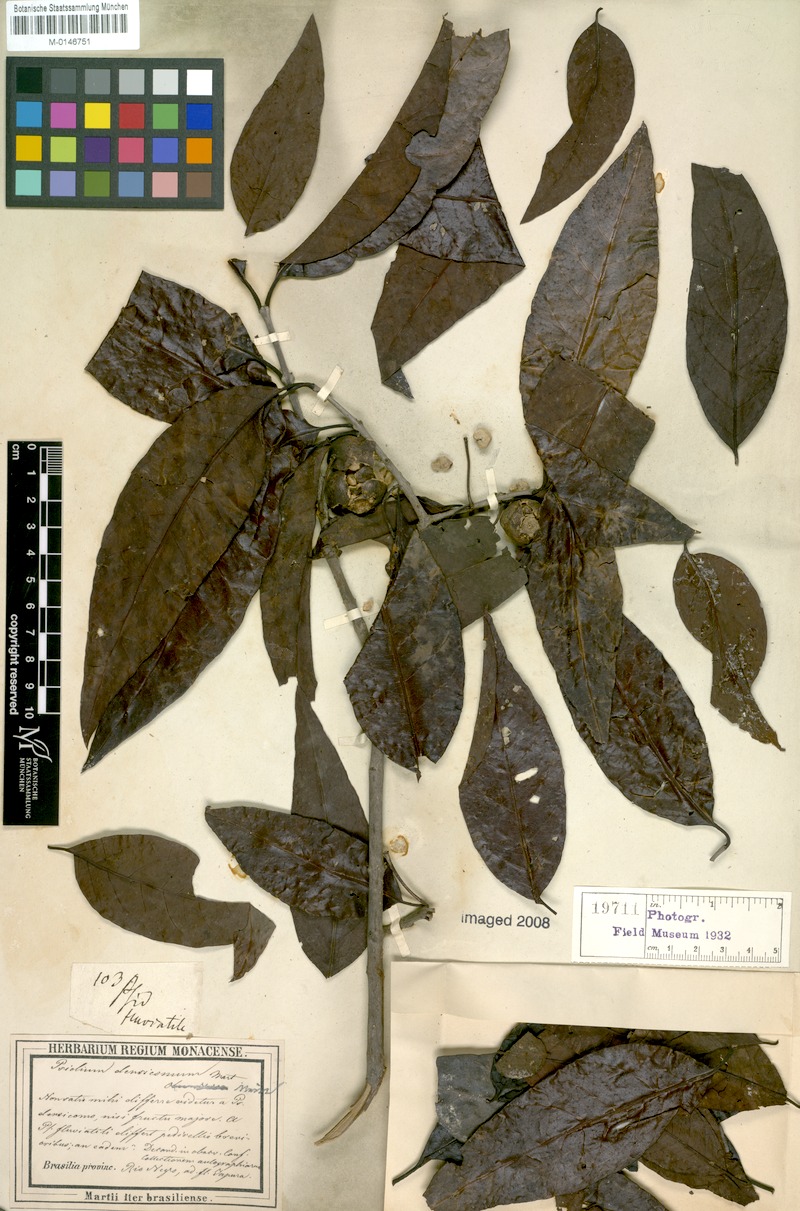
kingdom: Plantae
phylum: Tracheophyta
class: Magnoliopsida
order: Myrtales
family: Myrtaceae
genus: Psidium
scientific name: Psidium densicomum
